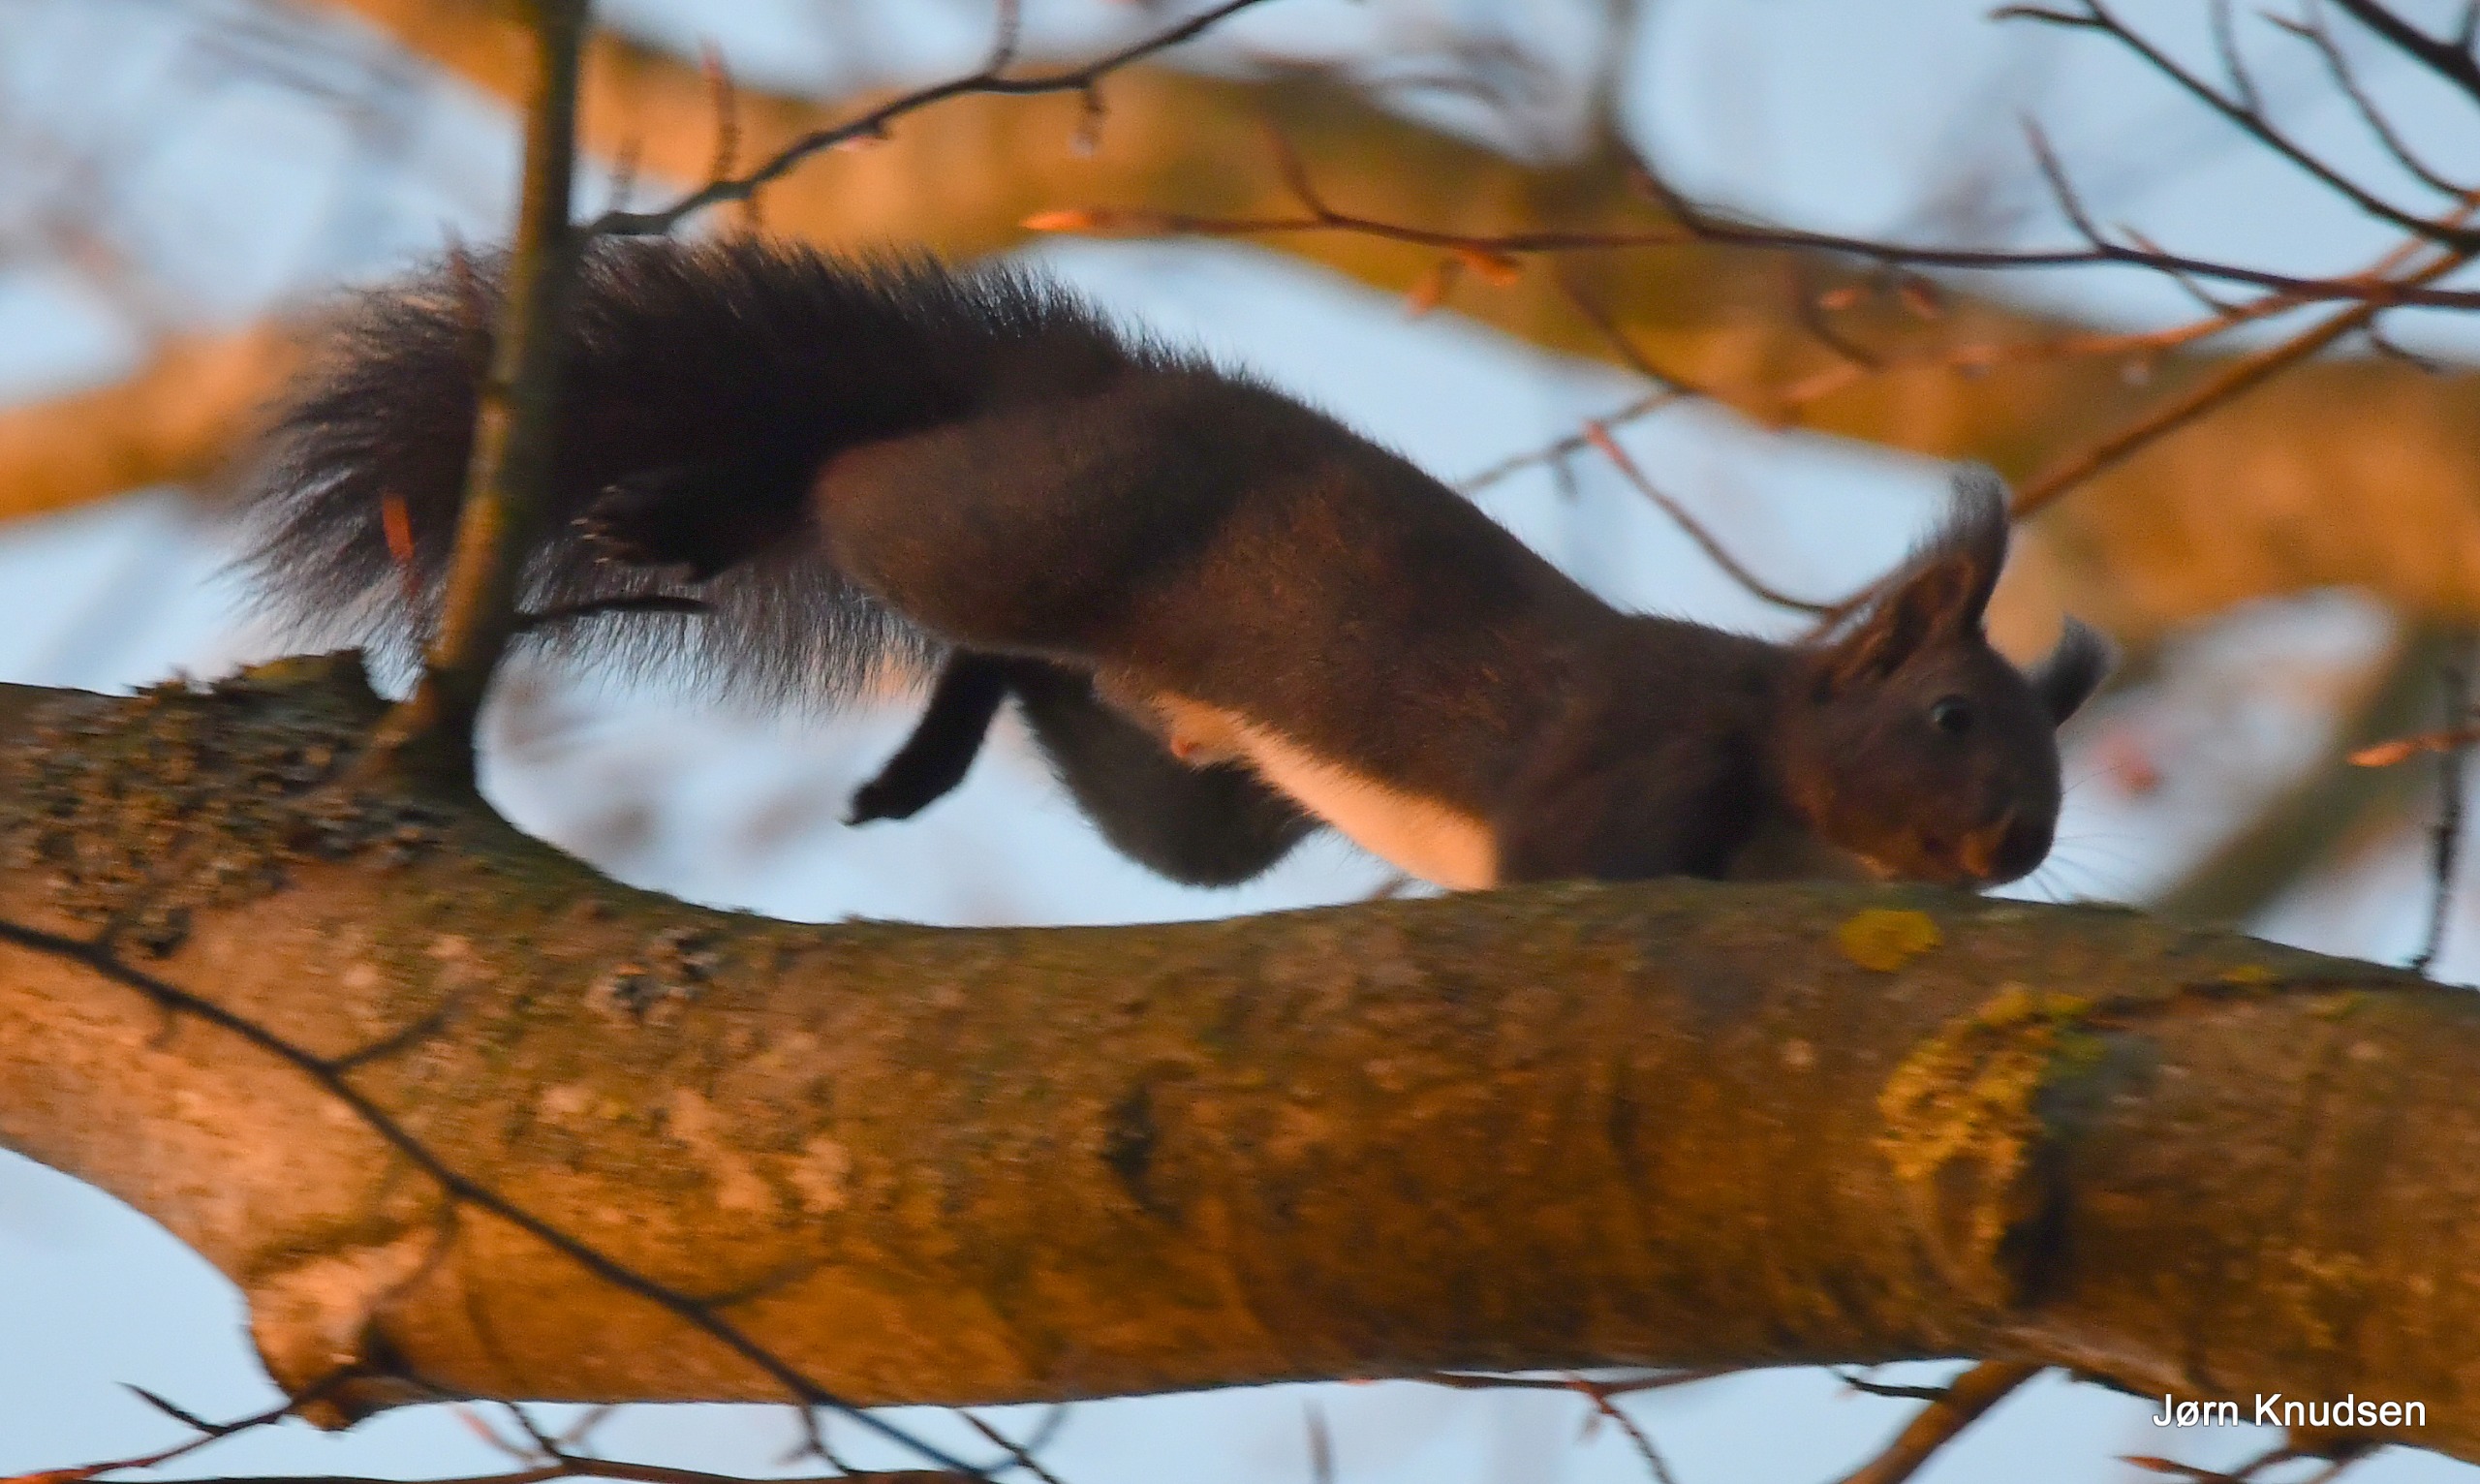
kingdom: Animalia
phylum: Chordata
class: Mammalia
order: Rodentia
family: Sciuridae
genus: Sciurus
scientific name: Sciurus vulgaris
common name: Egern
